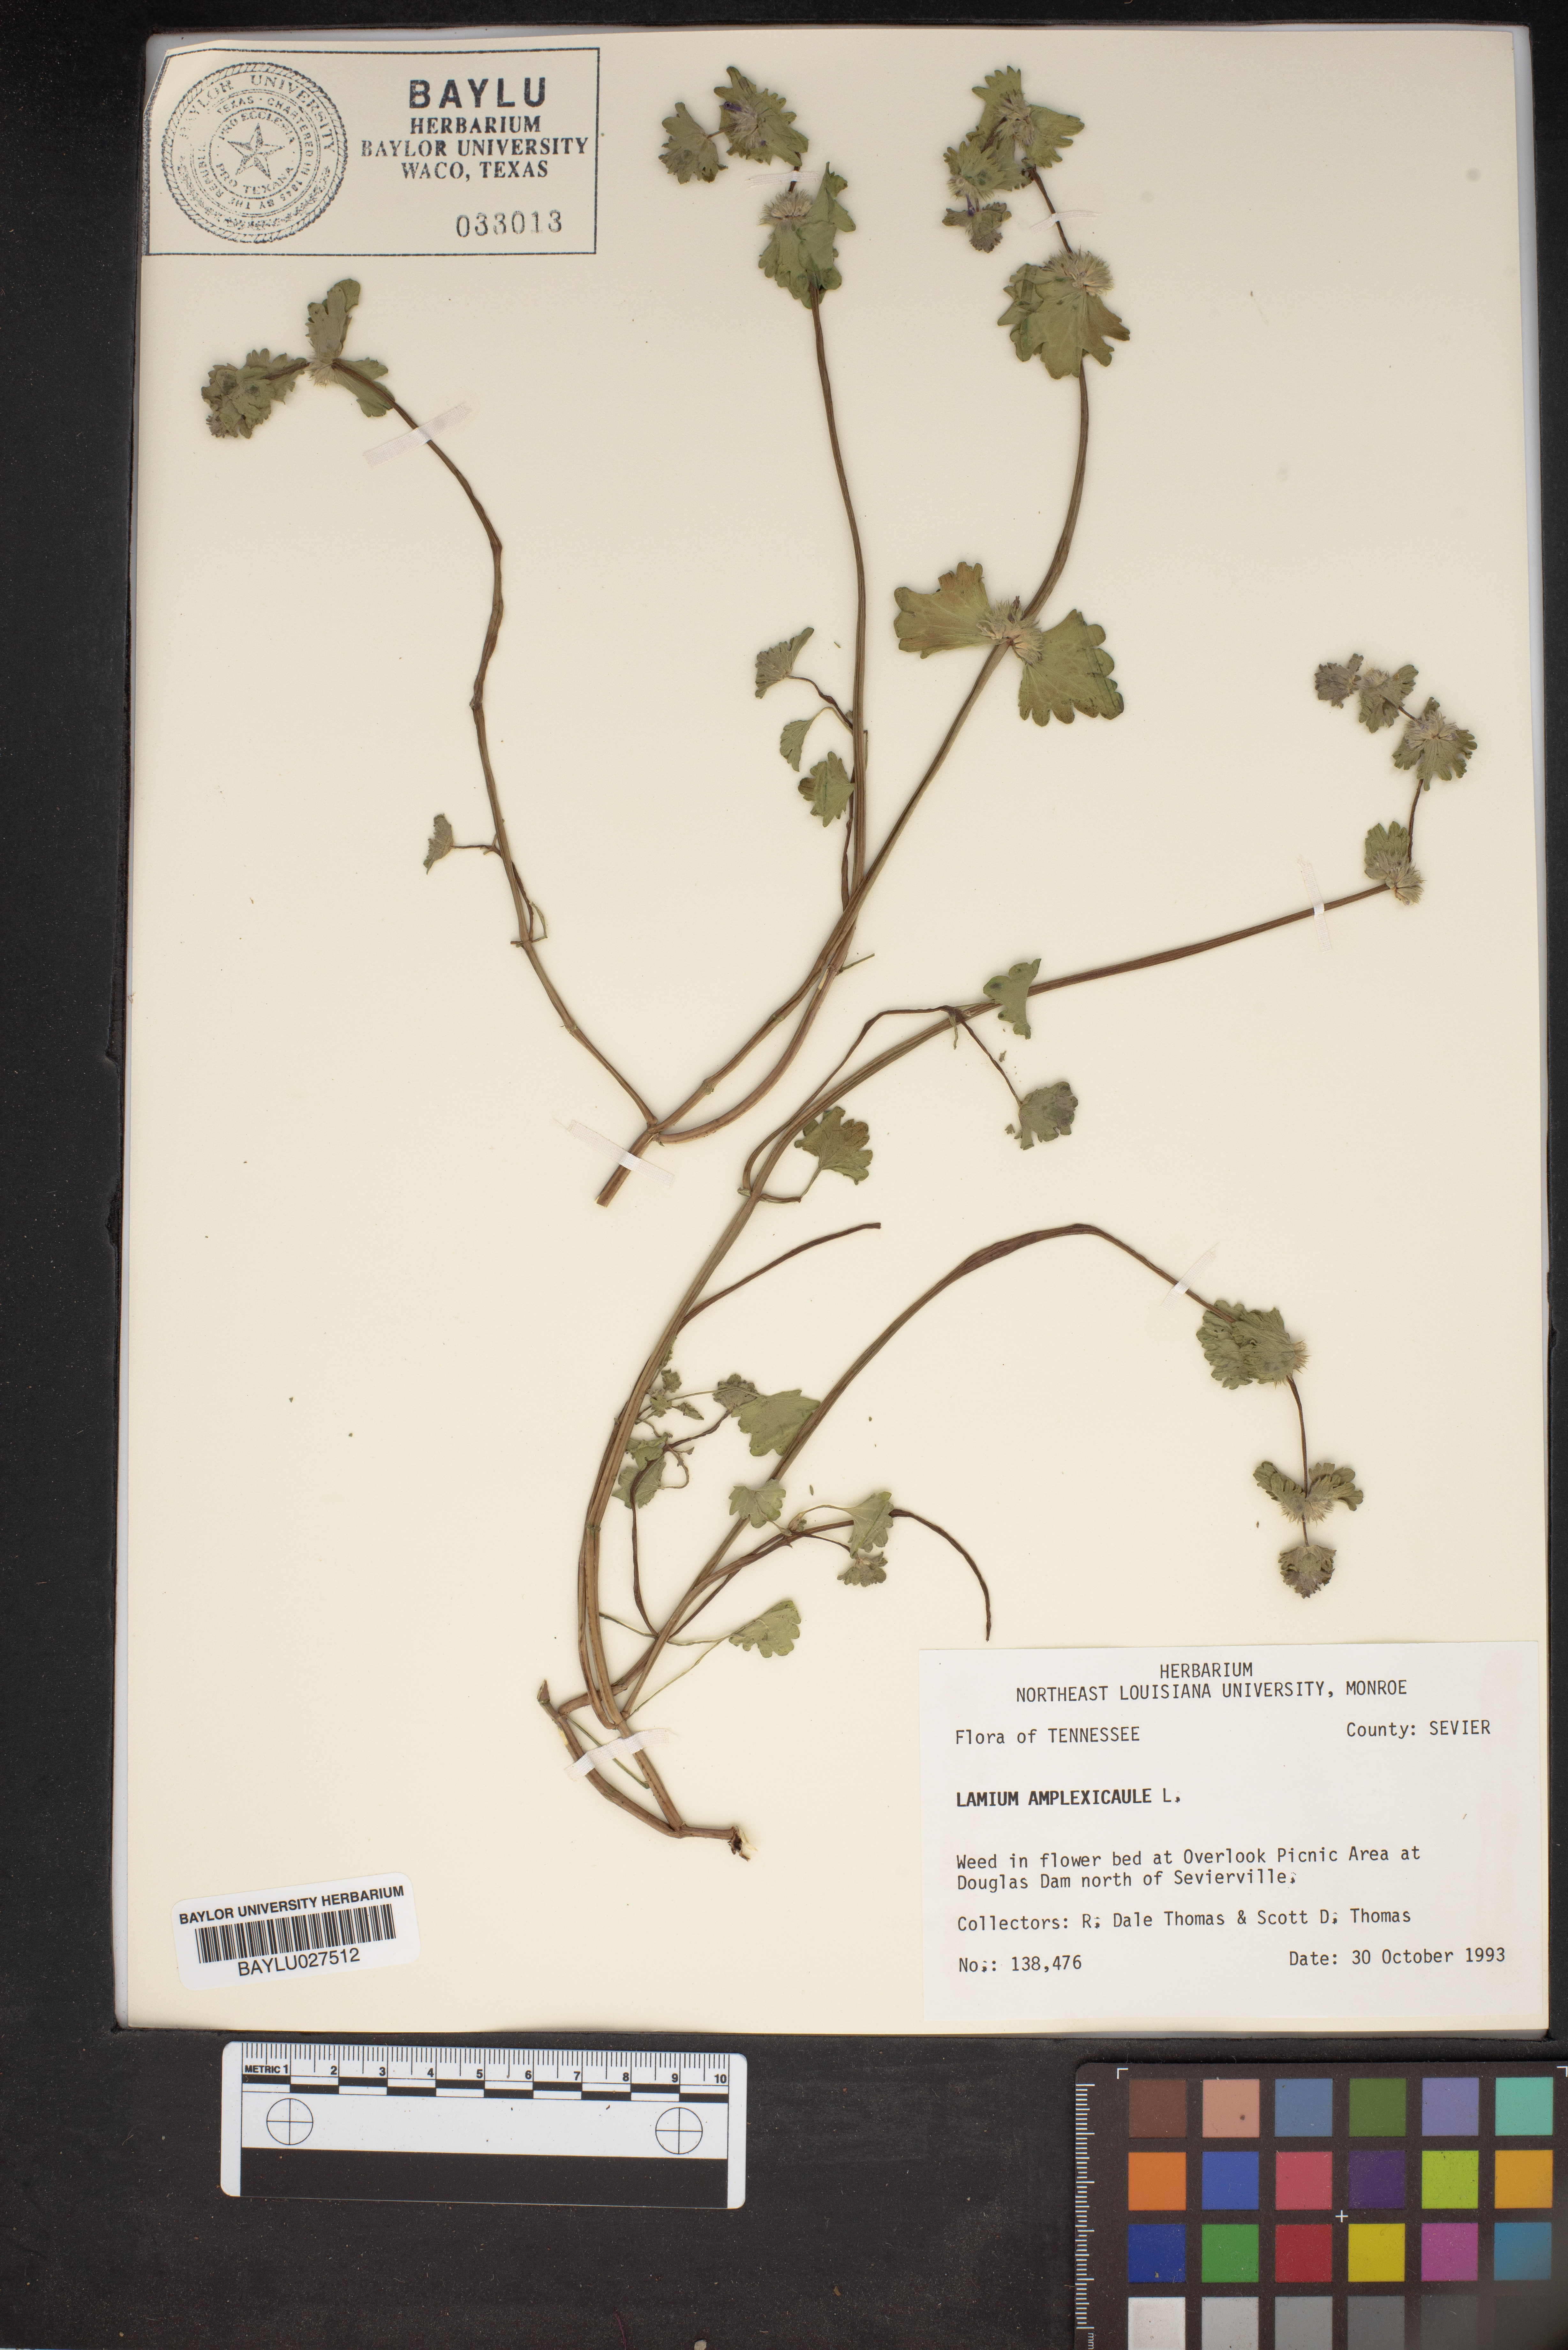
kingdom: Plantae
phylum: Tracheophyta
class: Magnoliopsida
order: Lamiales
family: Lamiaceae
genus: Lamium
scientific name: Lamium amplexicaule
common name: Henbit dead-nettle
